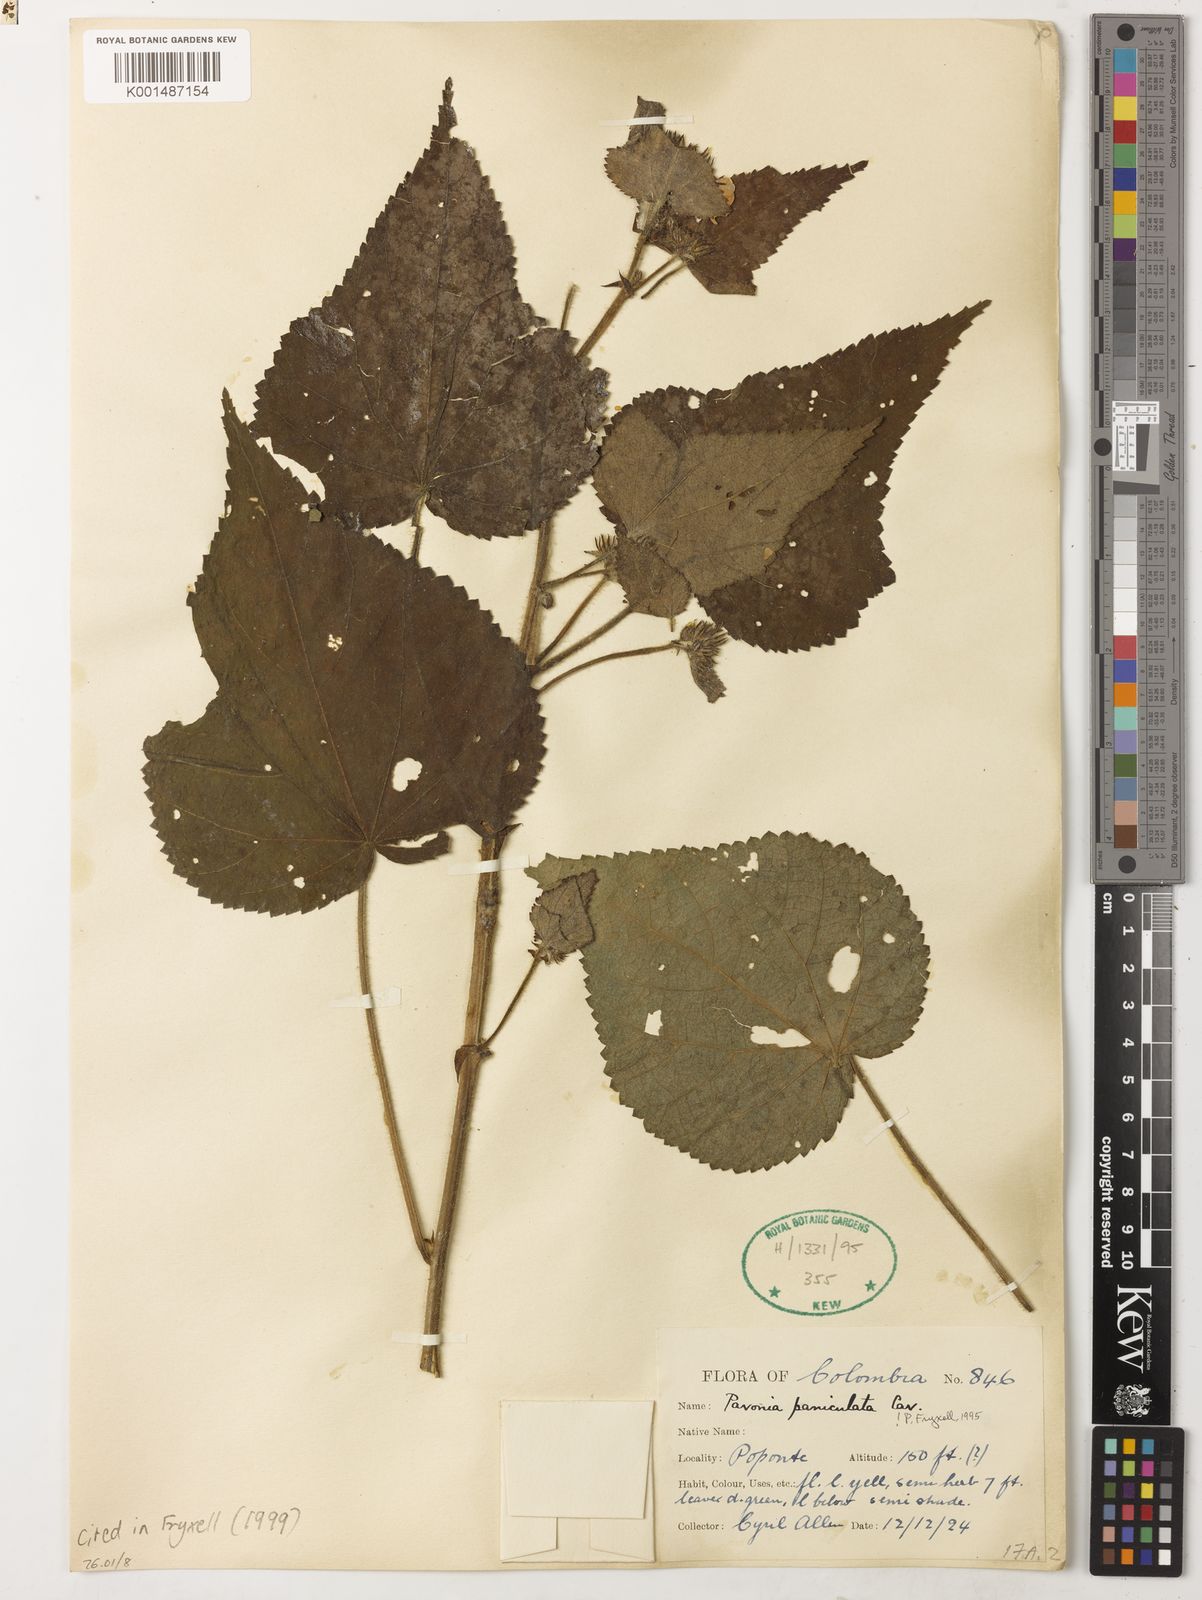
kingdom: Plantae
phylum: Tracheophyta
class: Magnoliopsida
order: Malvales
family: Malvaceae
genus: Pavonia
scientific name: Pavonia paniculata
